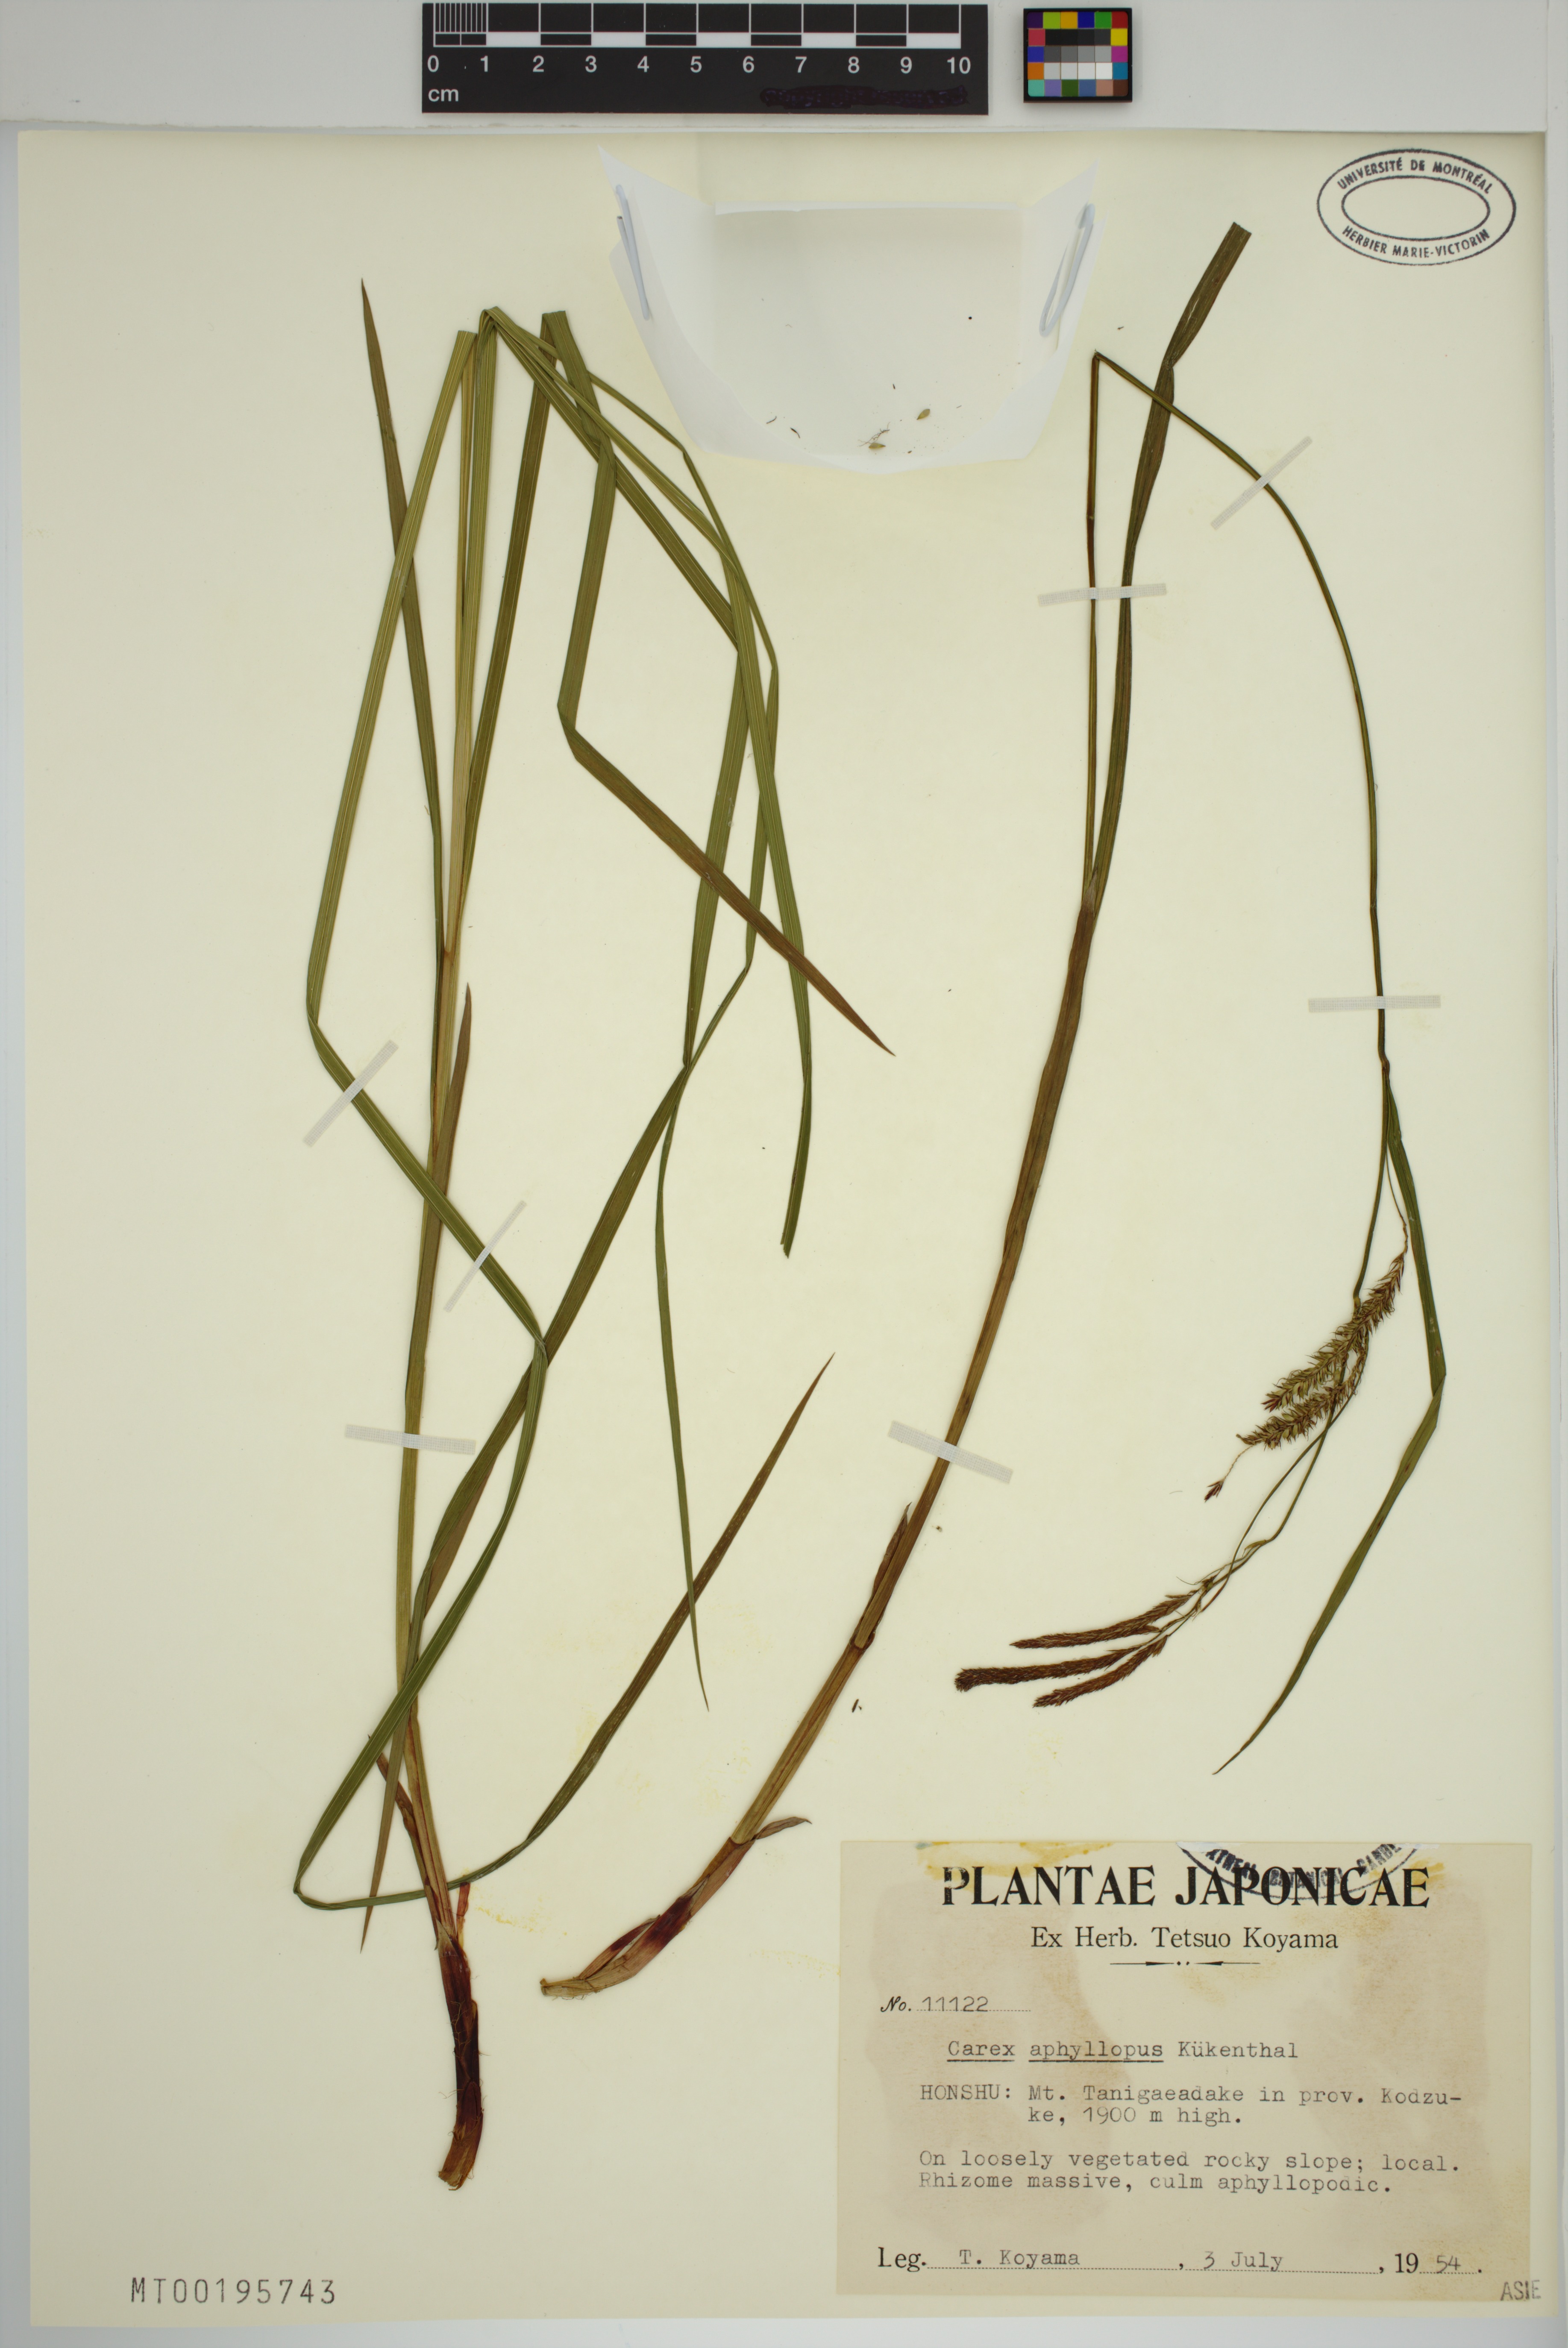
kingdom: Plantae
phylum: Tracheophyta
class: Liliopsida
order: Poales
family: Cyperaceae
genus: Carex
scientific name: Carex aphyllopus
